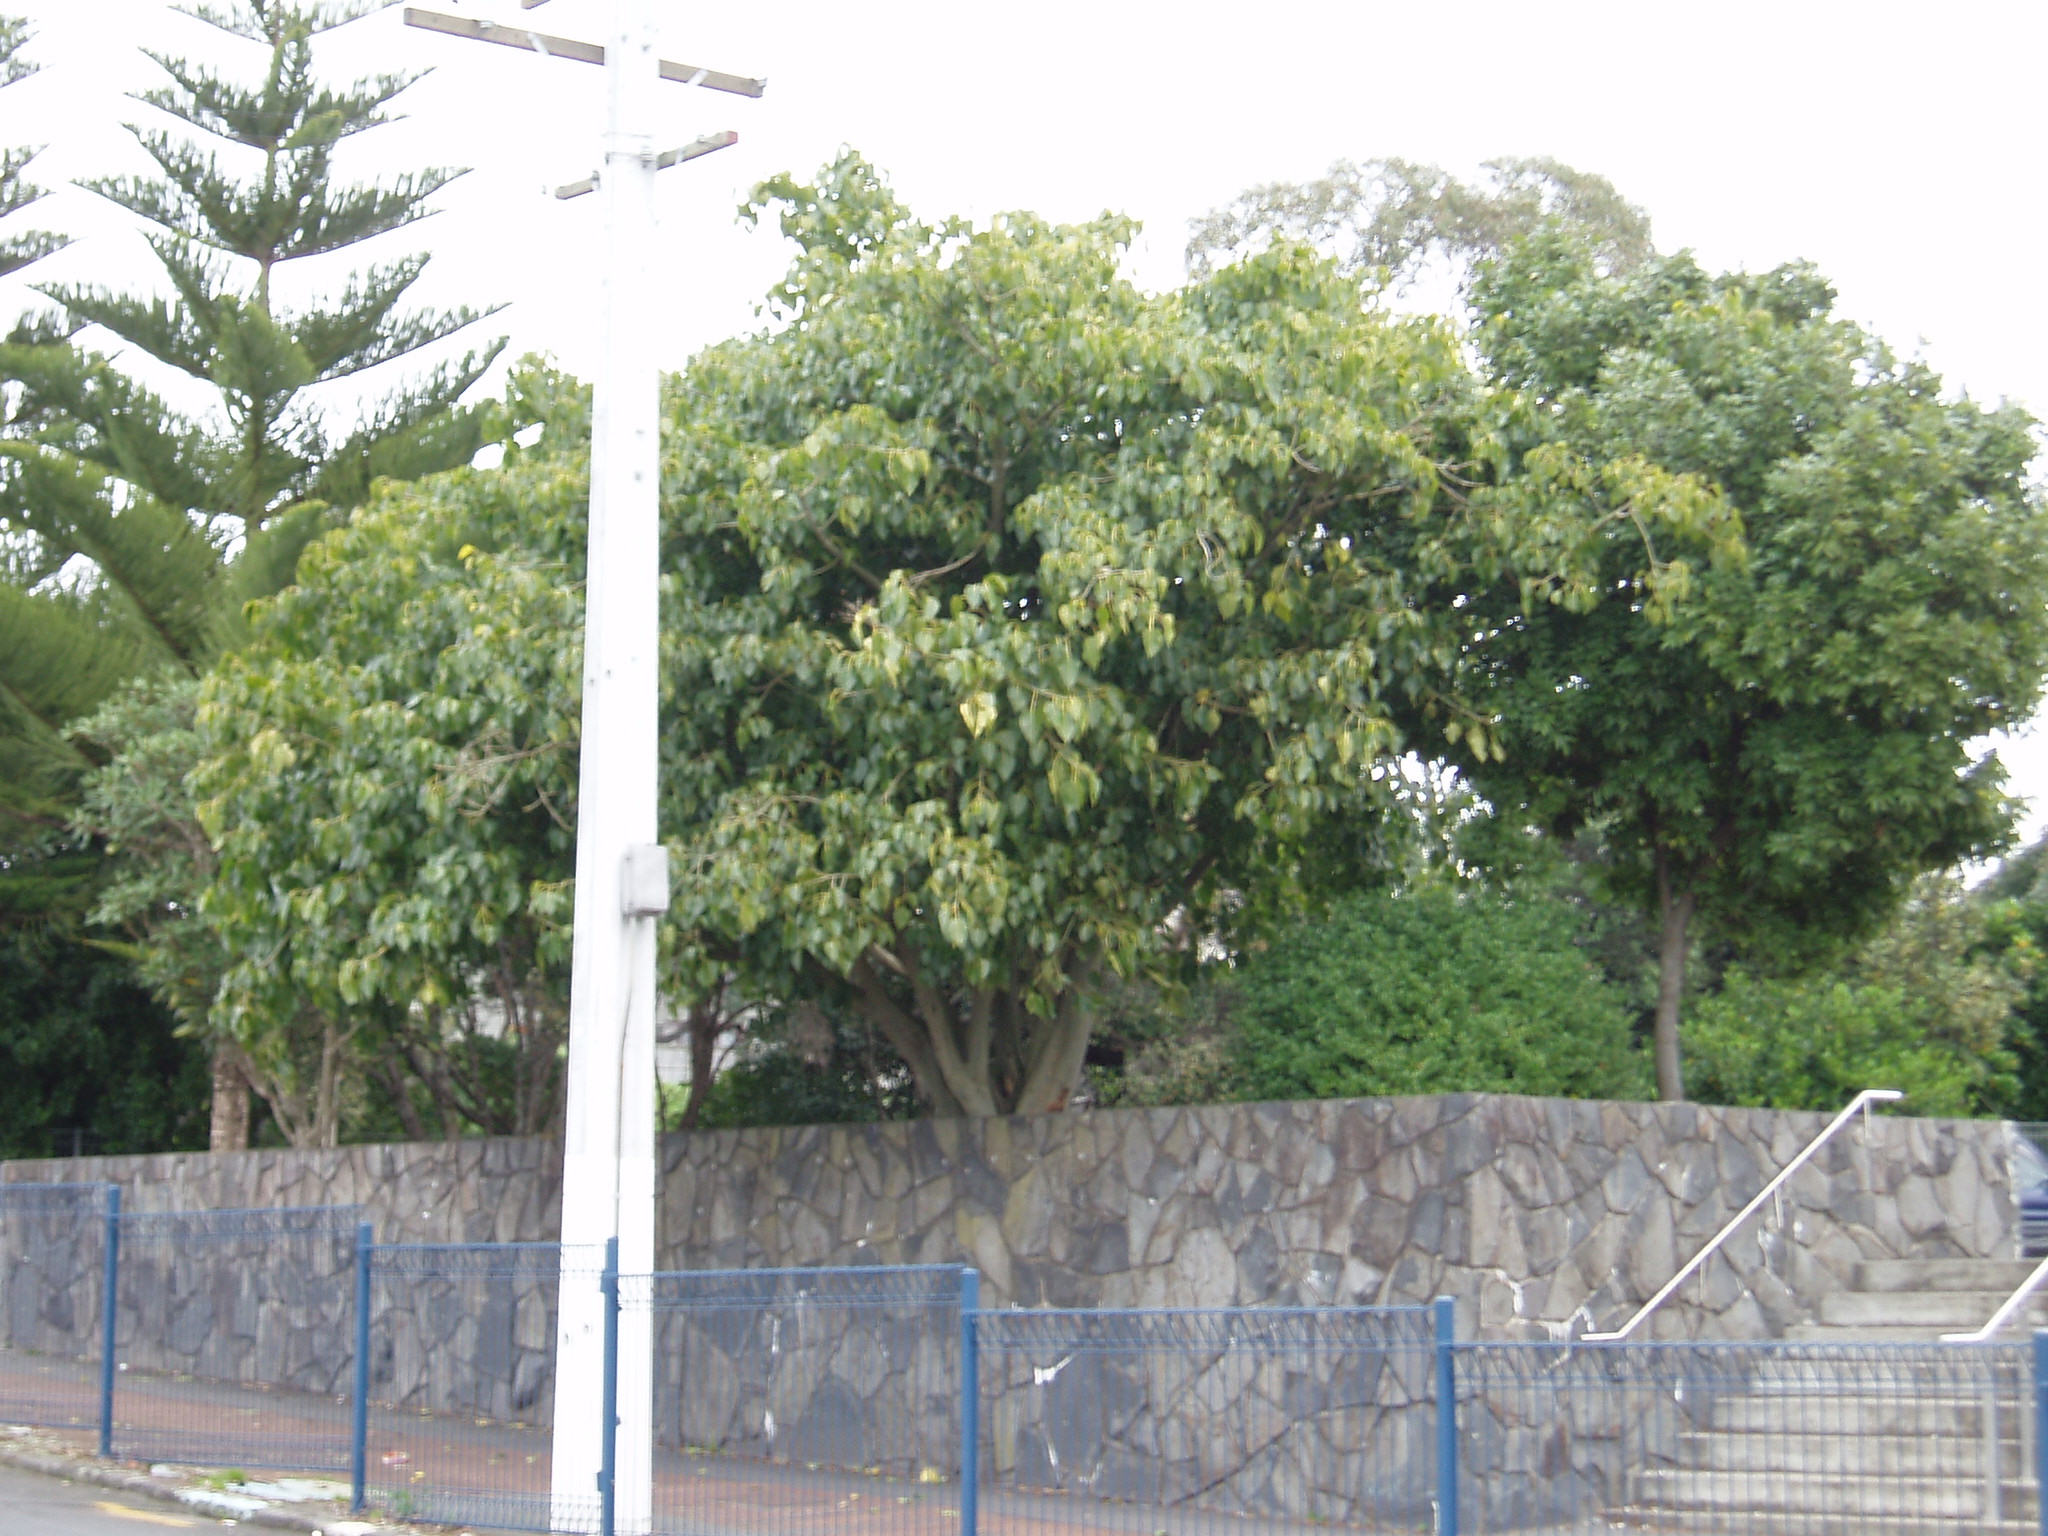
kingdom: Plantae
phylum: Tracheophyta
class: Magnoliopsida
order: Rosales
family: Moraceae
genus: Ficus
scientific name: Ficus religiosa
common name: Bodhi tree
